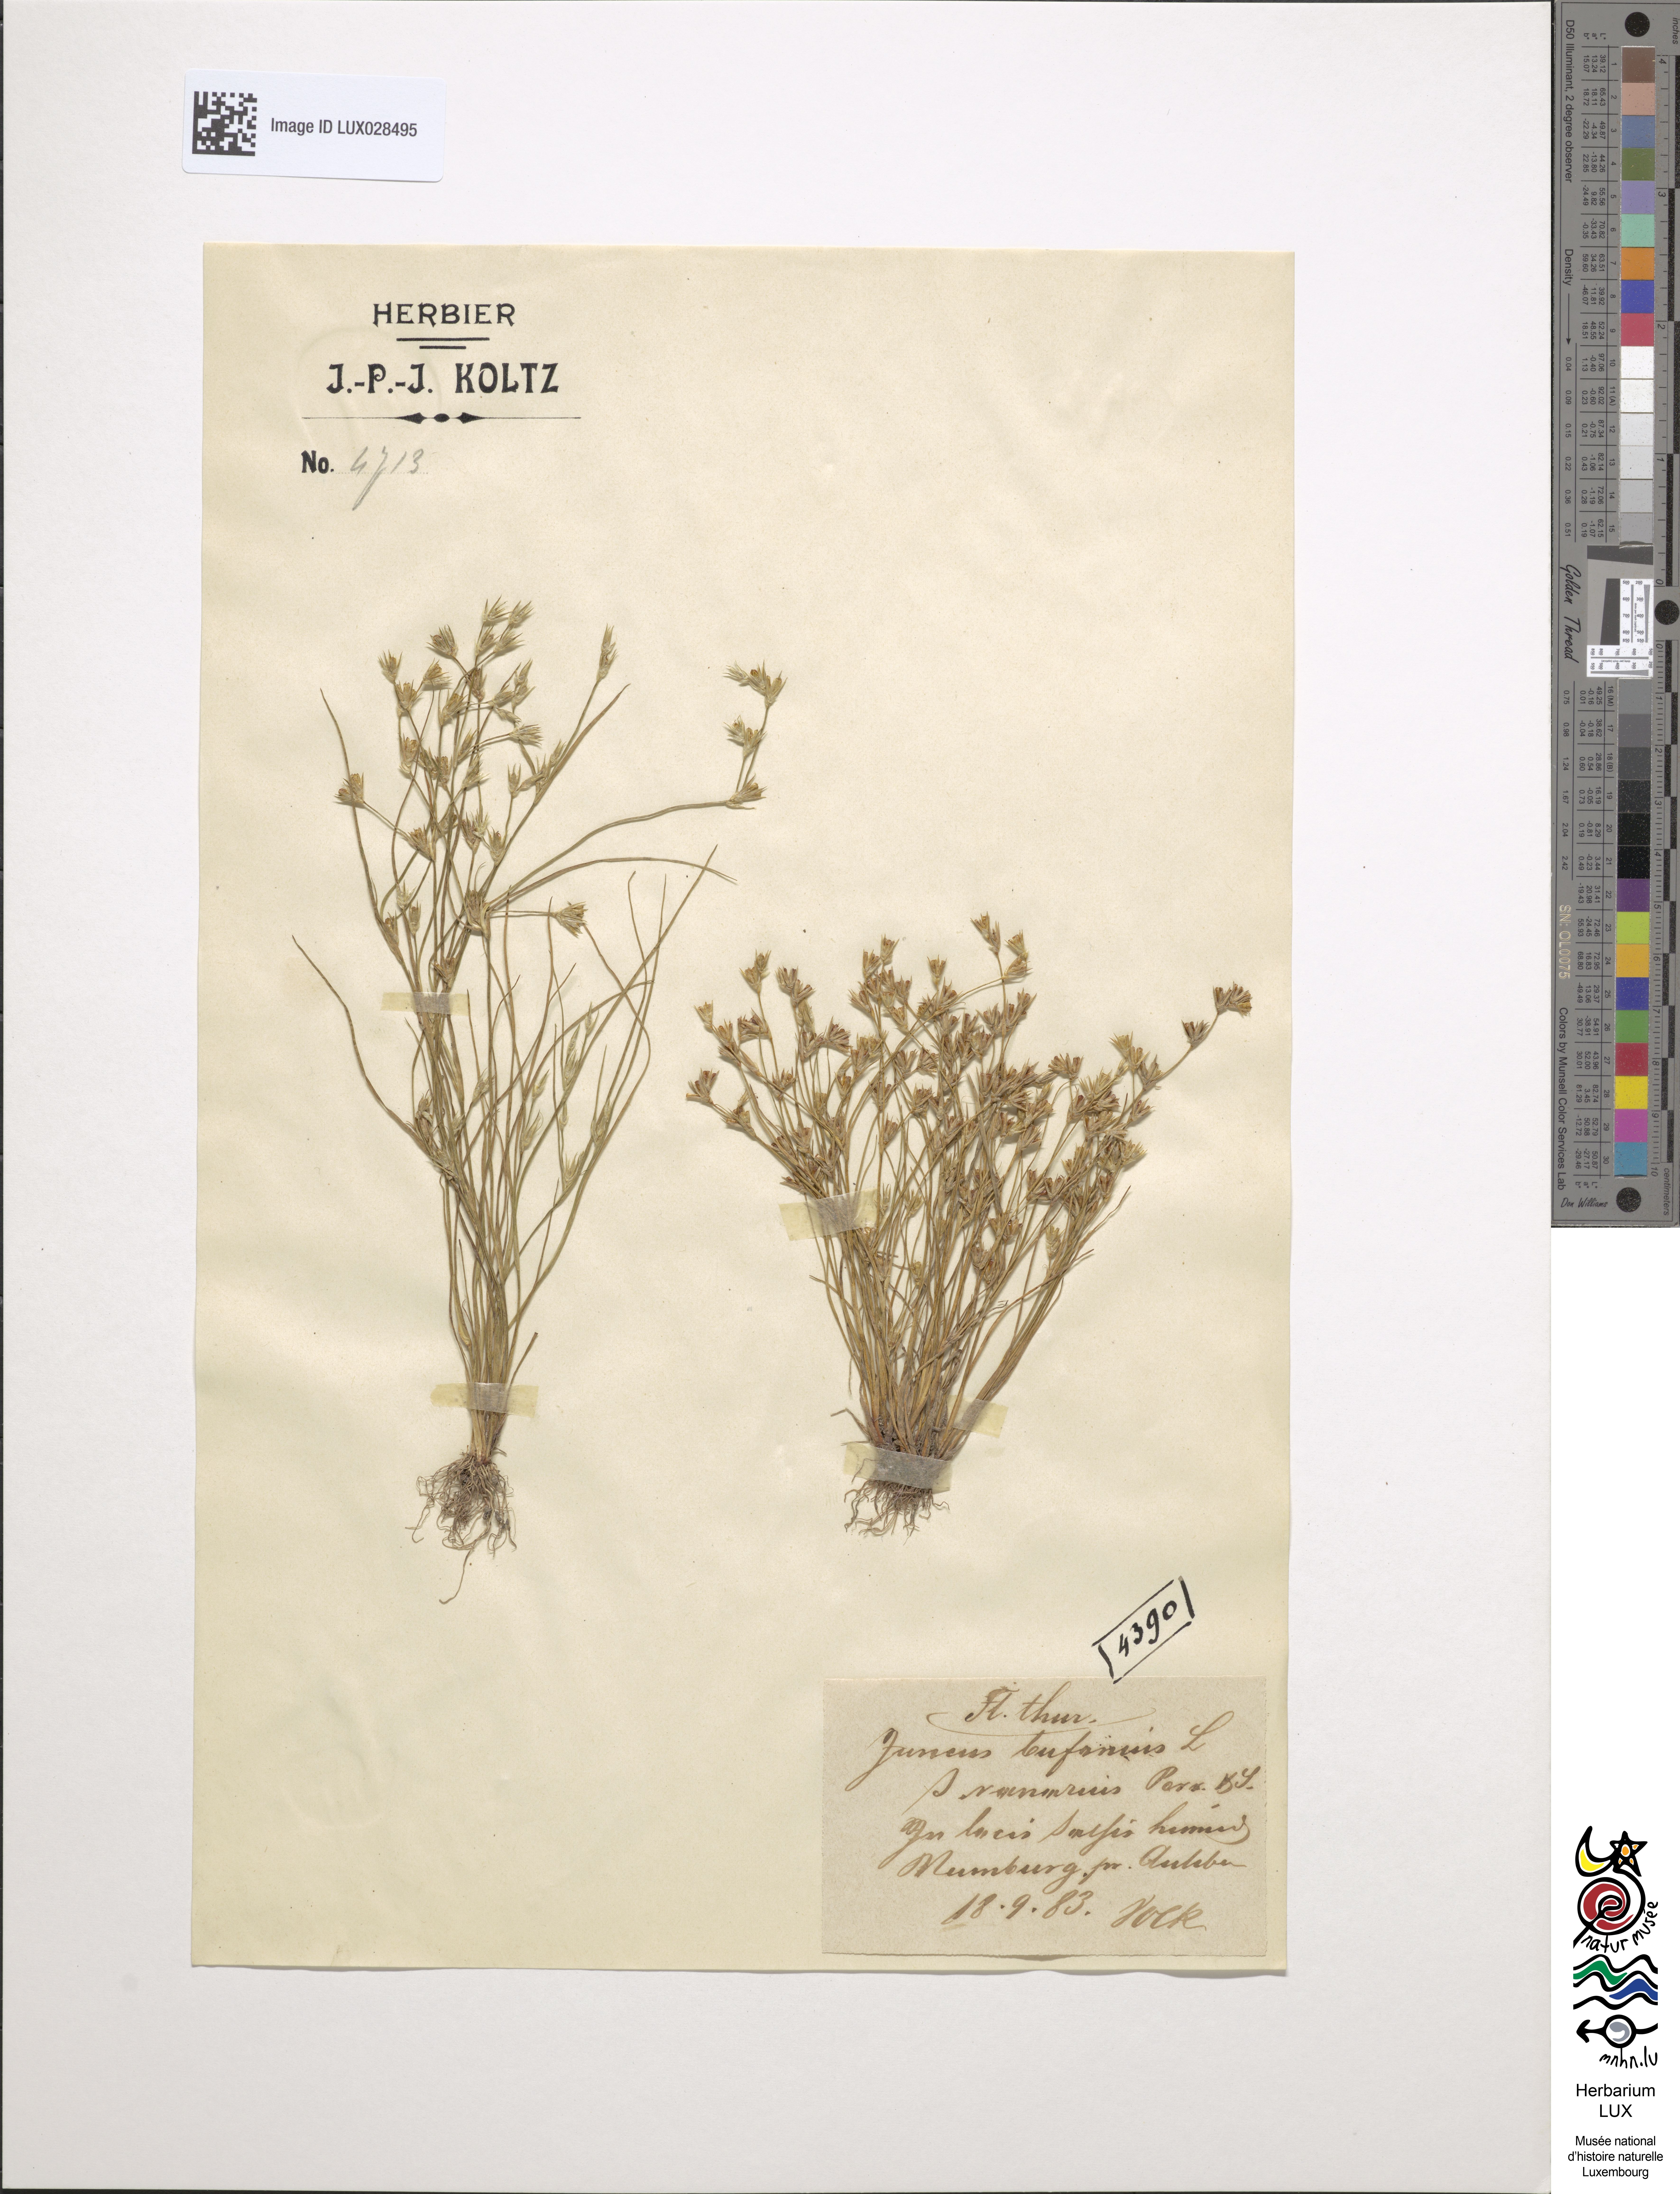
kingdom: Plantae
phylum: Tracheophyta
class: Liliopsida
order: Poales
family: Juncaceae
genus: Juncus
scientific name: Juncus ranarius
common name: Frog rush
